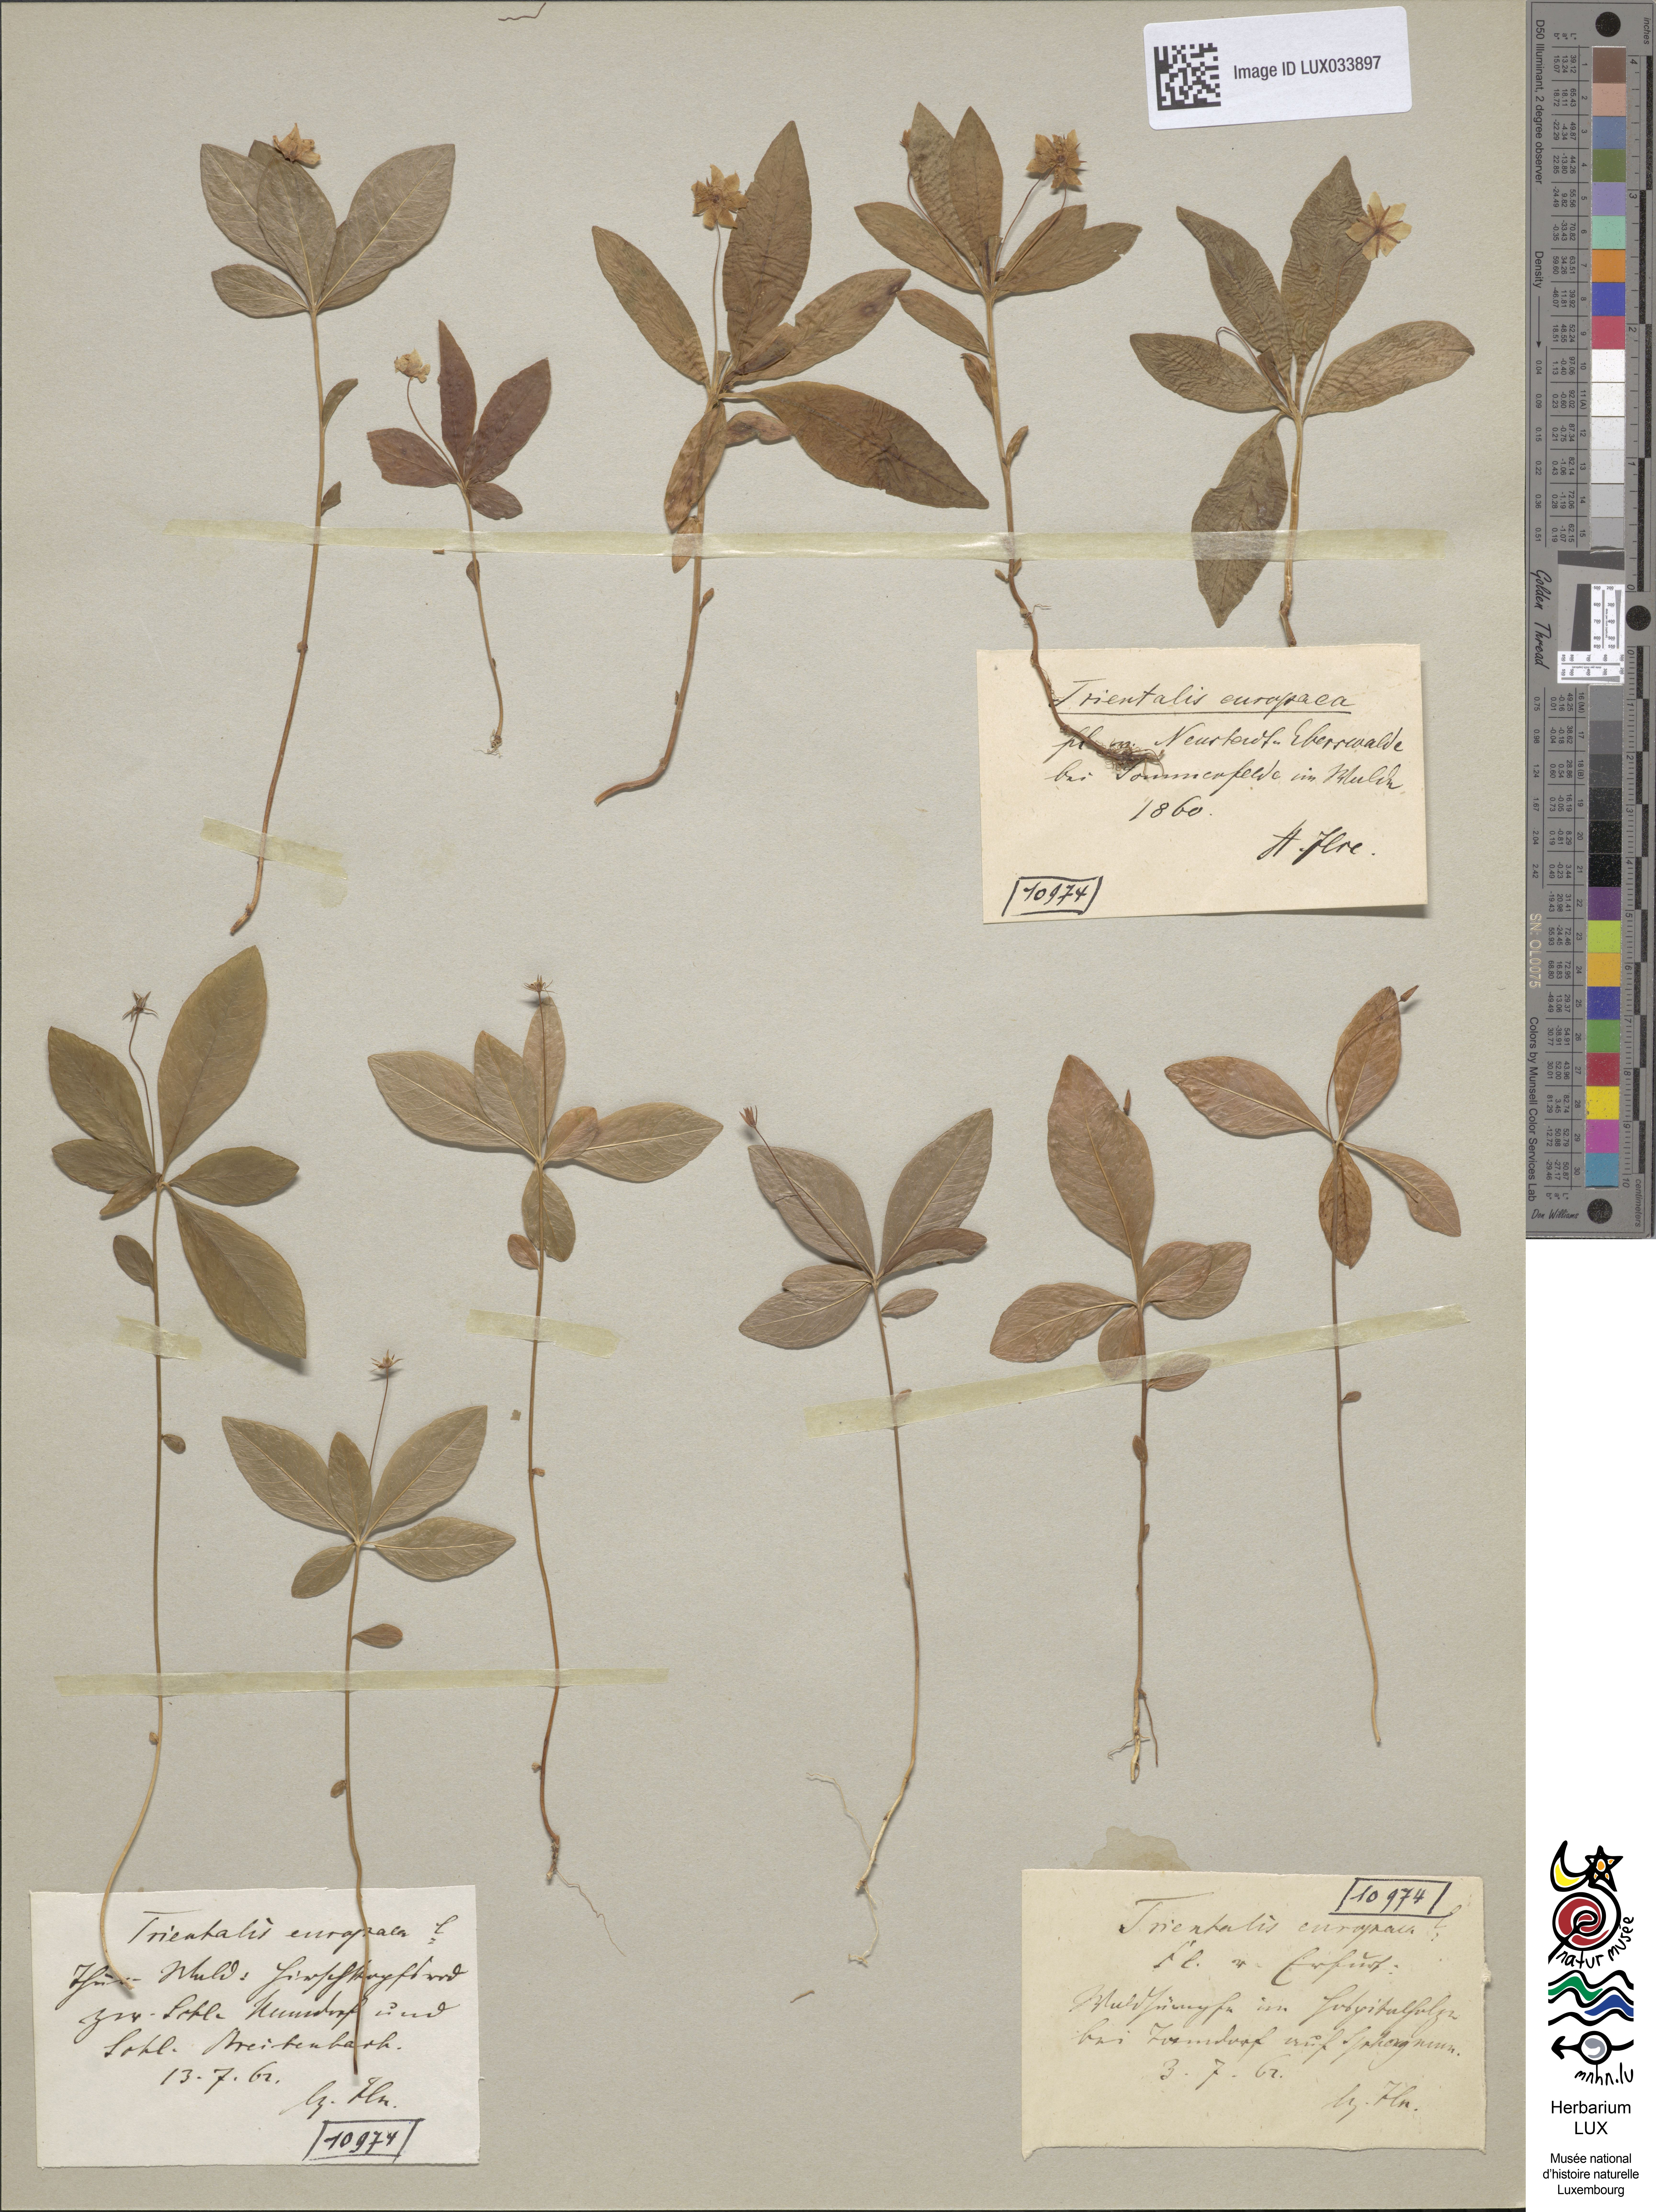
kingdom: Plantae
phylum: Tracheophyta
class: Magnoliopsida
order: Ericales
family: Primulaceae
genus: Lysimachia
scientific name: Lysimachia europaea
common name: Arctic starflower
